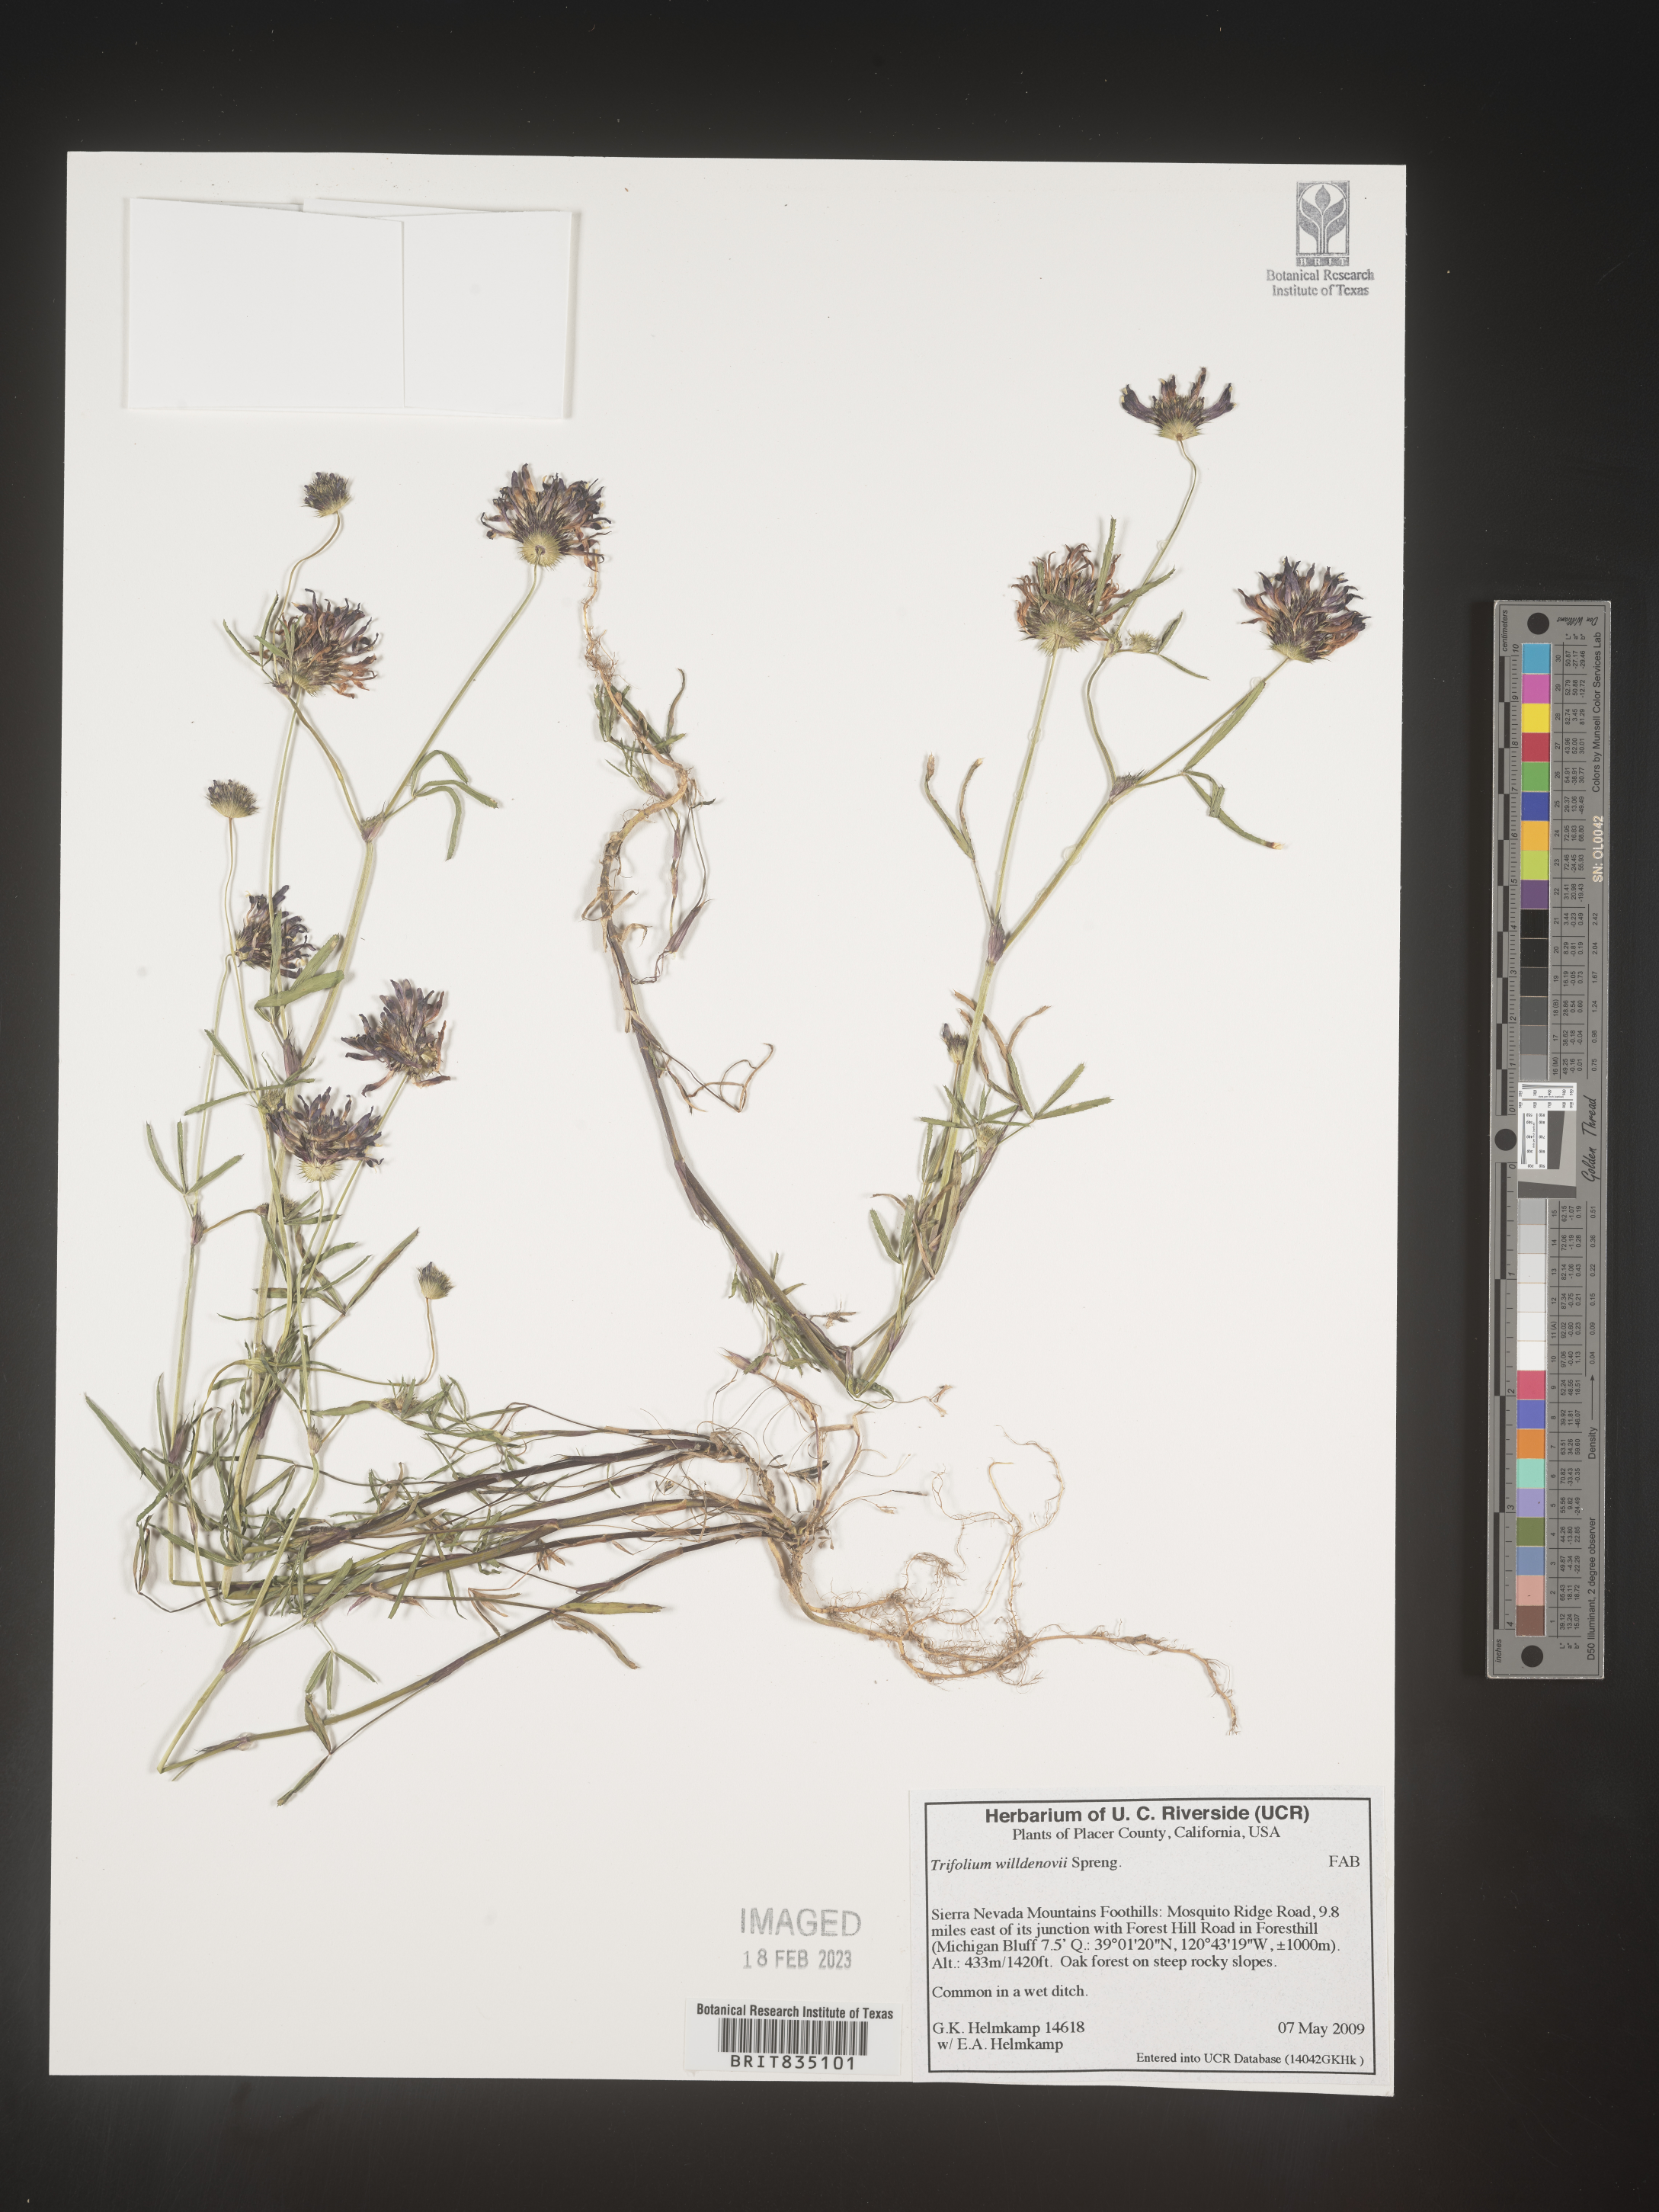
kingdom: Plantae
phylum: Tracheophyta
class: Magnoliopsida
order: Fabales
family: Fabaceae
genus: Trifolium
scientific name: Trifolium willdenovii
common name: Tomcat clover
